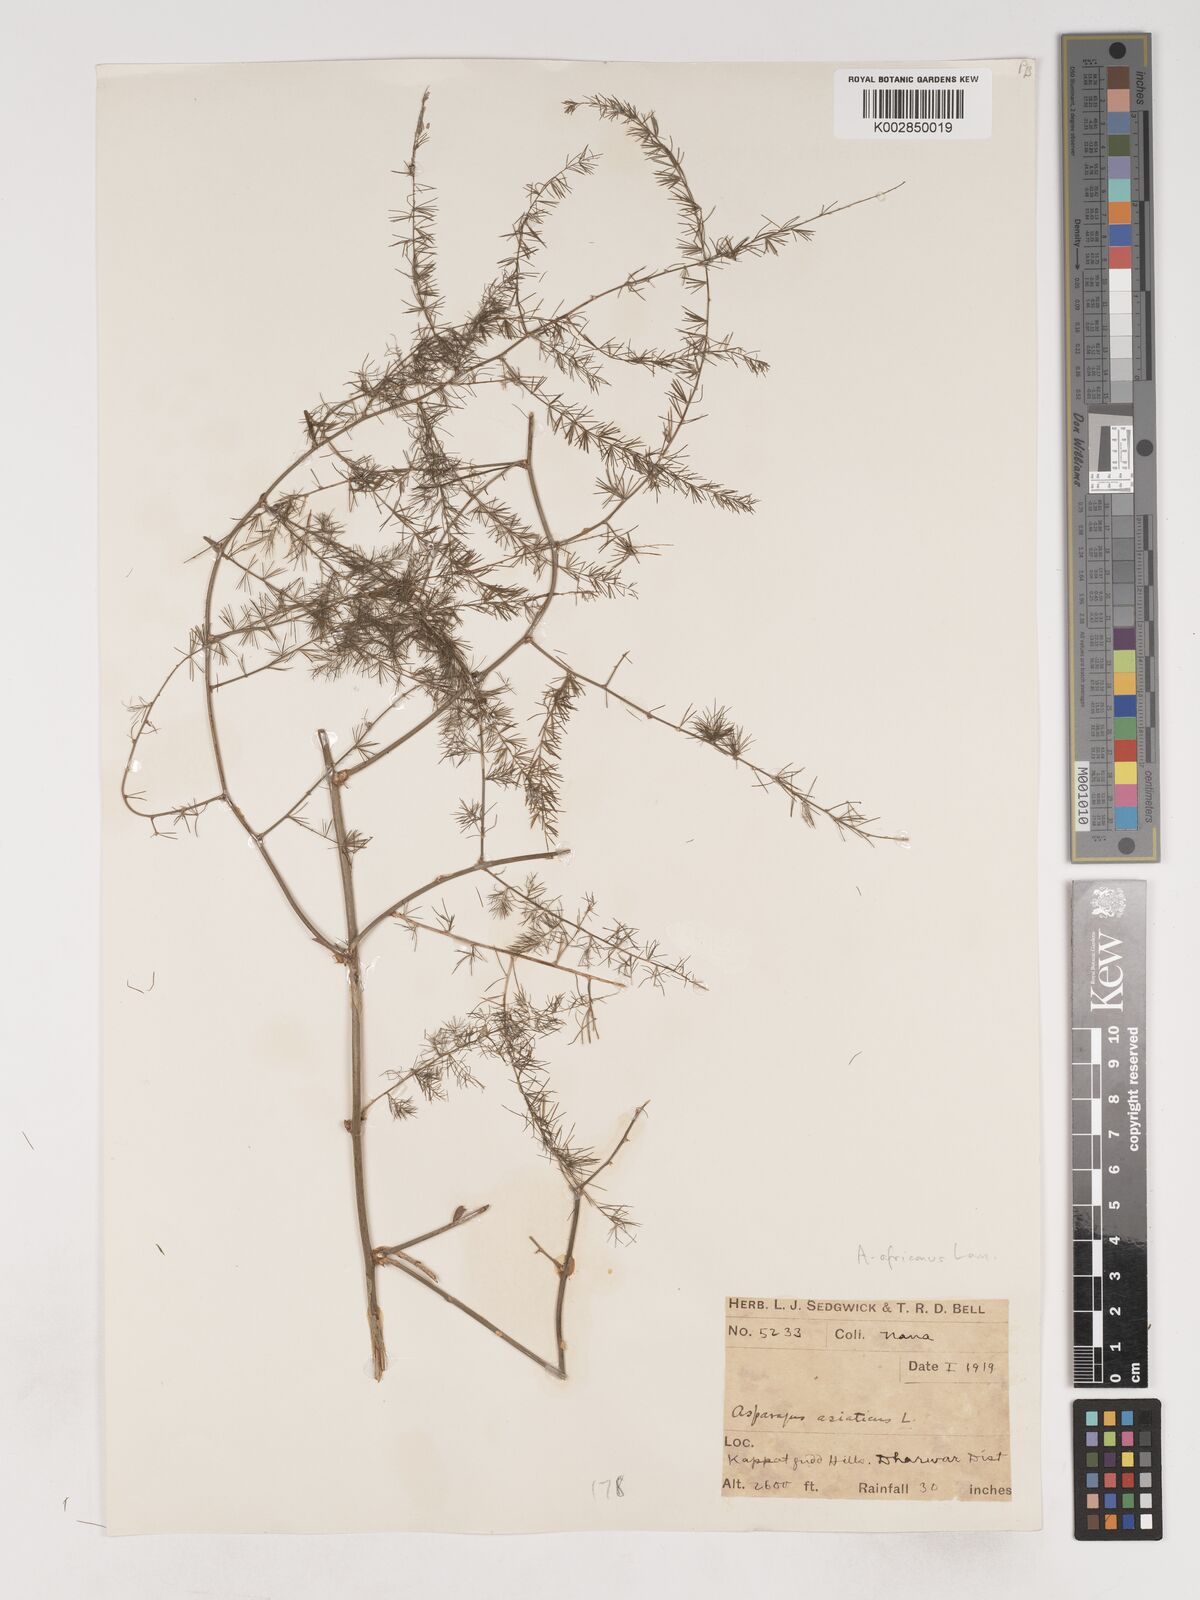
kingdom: Plantae
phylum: Tracheophyta
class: Liliopsida
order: Asparagales
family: Asparagaceae
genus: Asparagus
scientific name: Asparagus africanus
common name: Asparagus-fern
